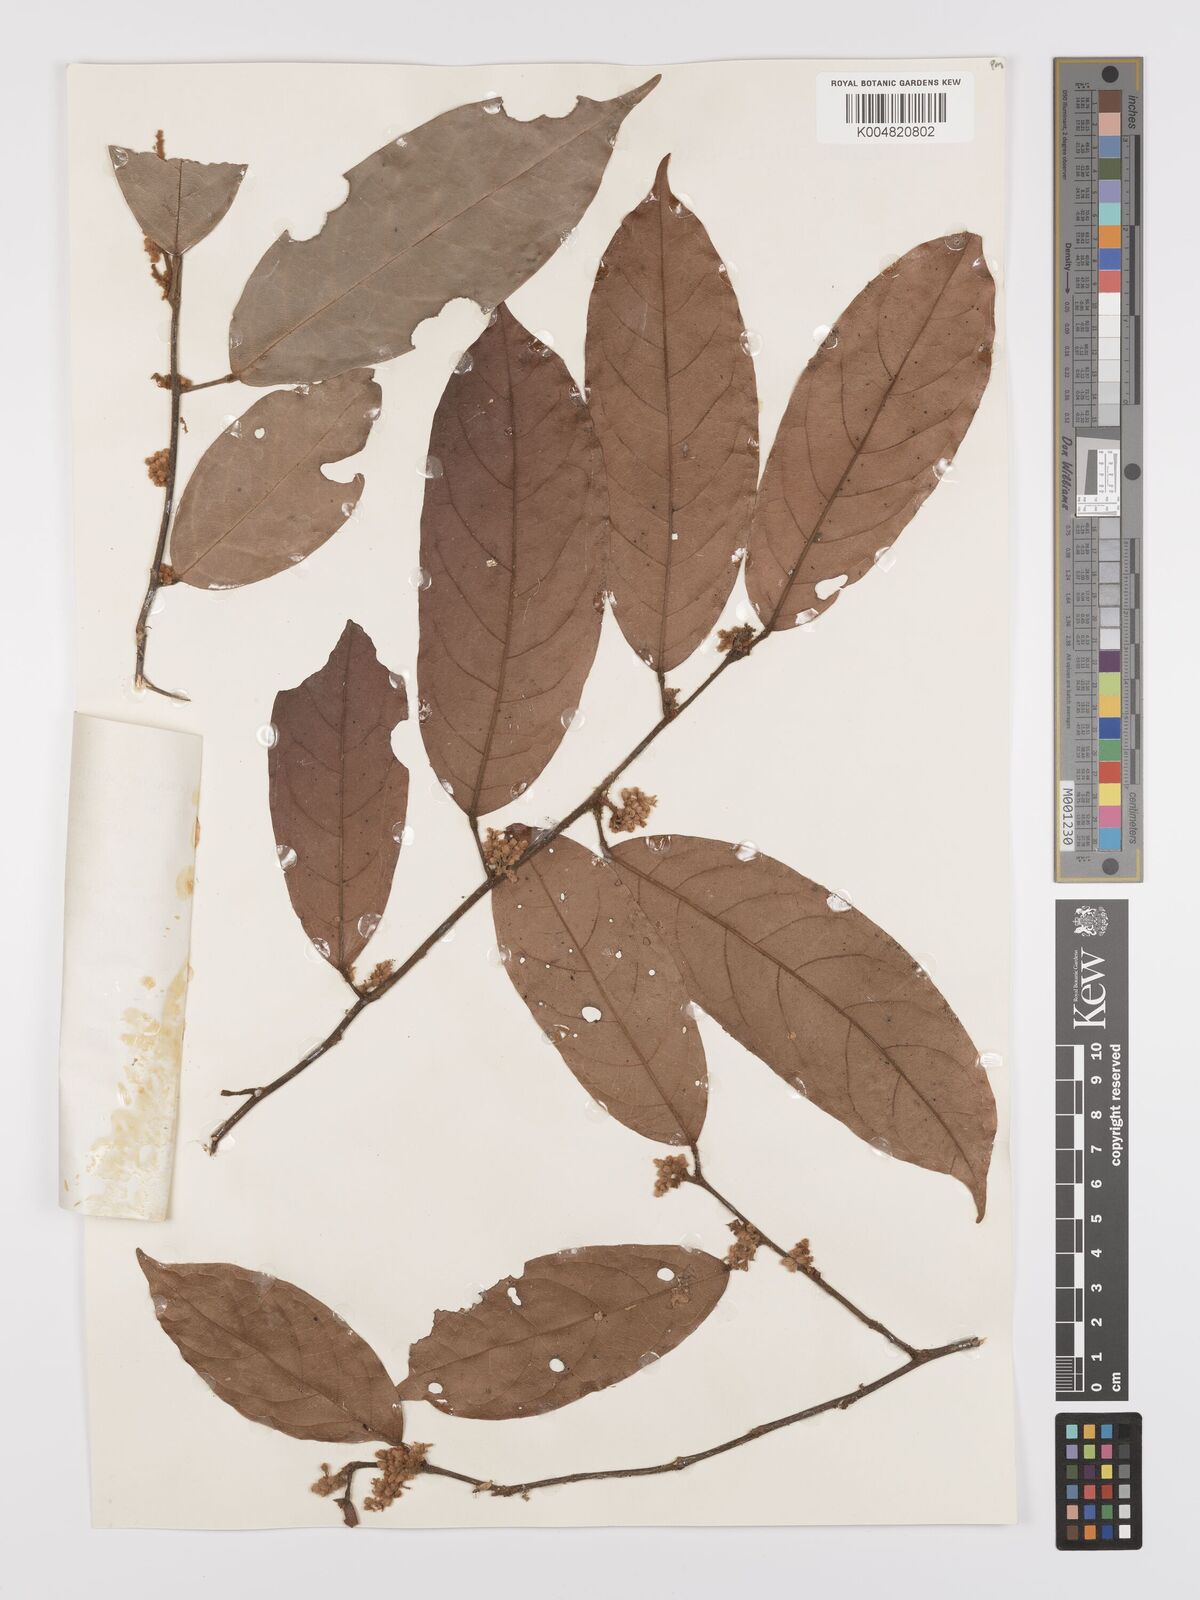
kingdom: Plantae
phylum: Tracheophyta
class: Magnoliopsida
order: Oxalidales
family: Connaraceae
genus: Ellipanthus
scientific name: Ellipanthus beccarii
